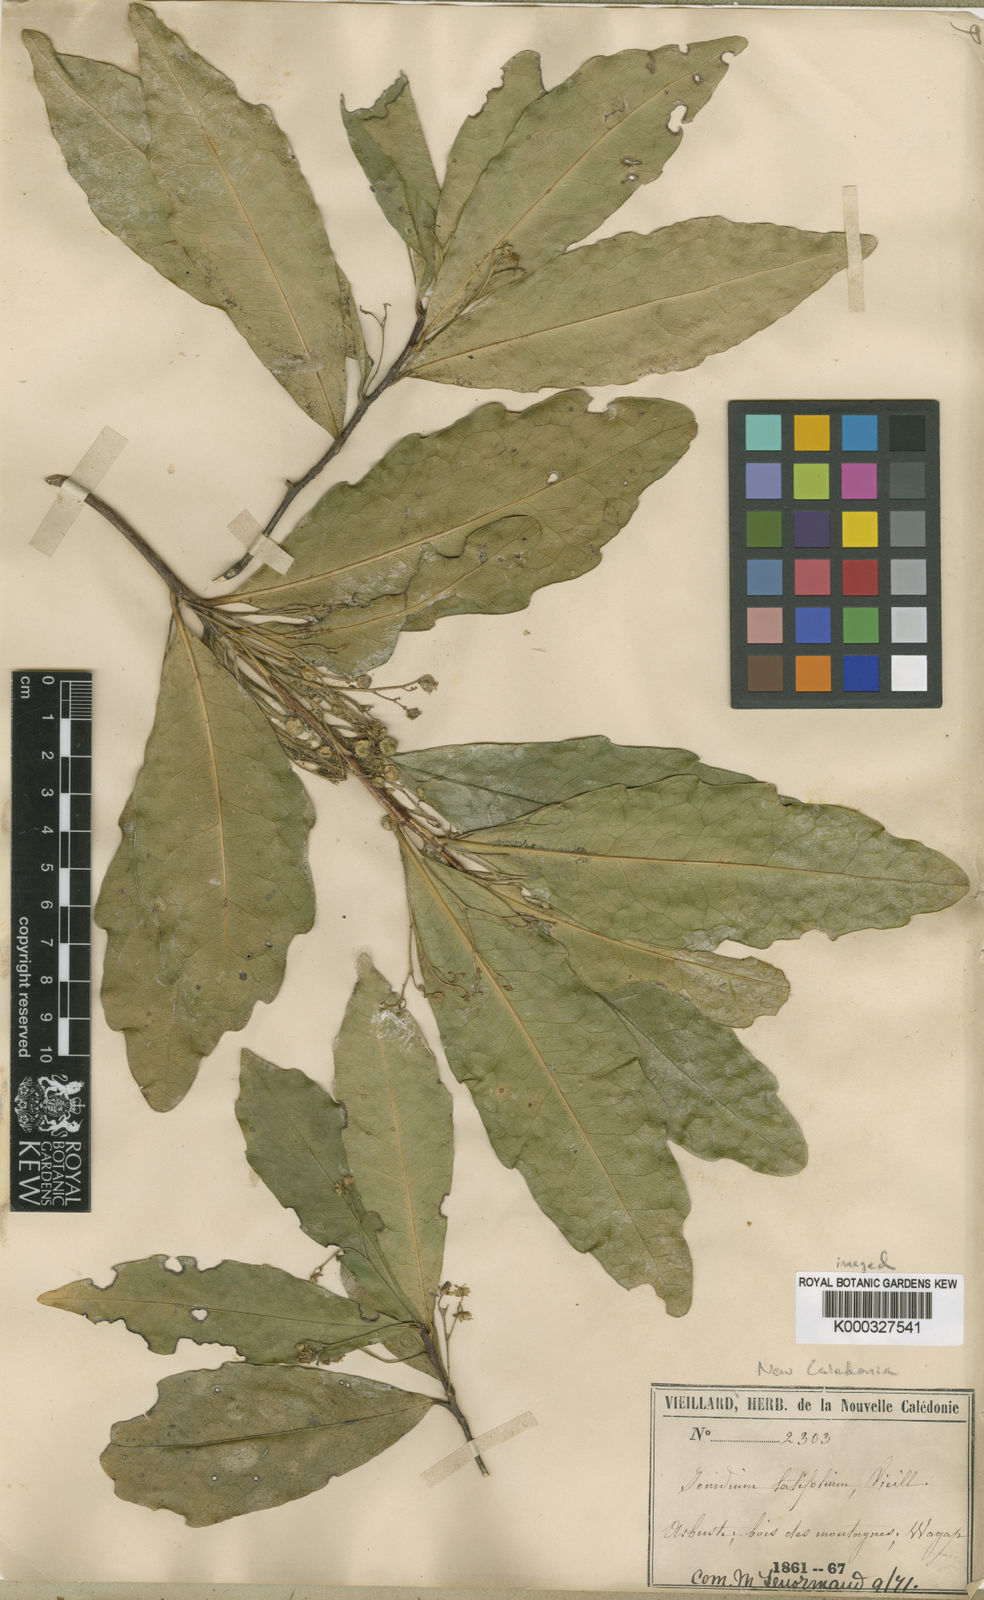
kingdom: Plantae
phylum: Tracheophyta
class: Magnoliopsida
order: Malpighiales
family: Violaceae
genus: Pigea
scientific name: Pigea latifolia
